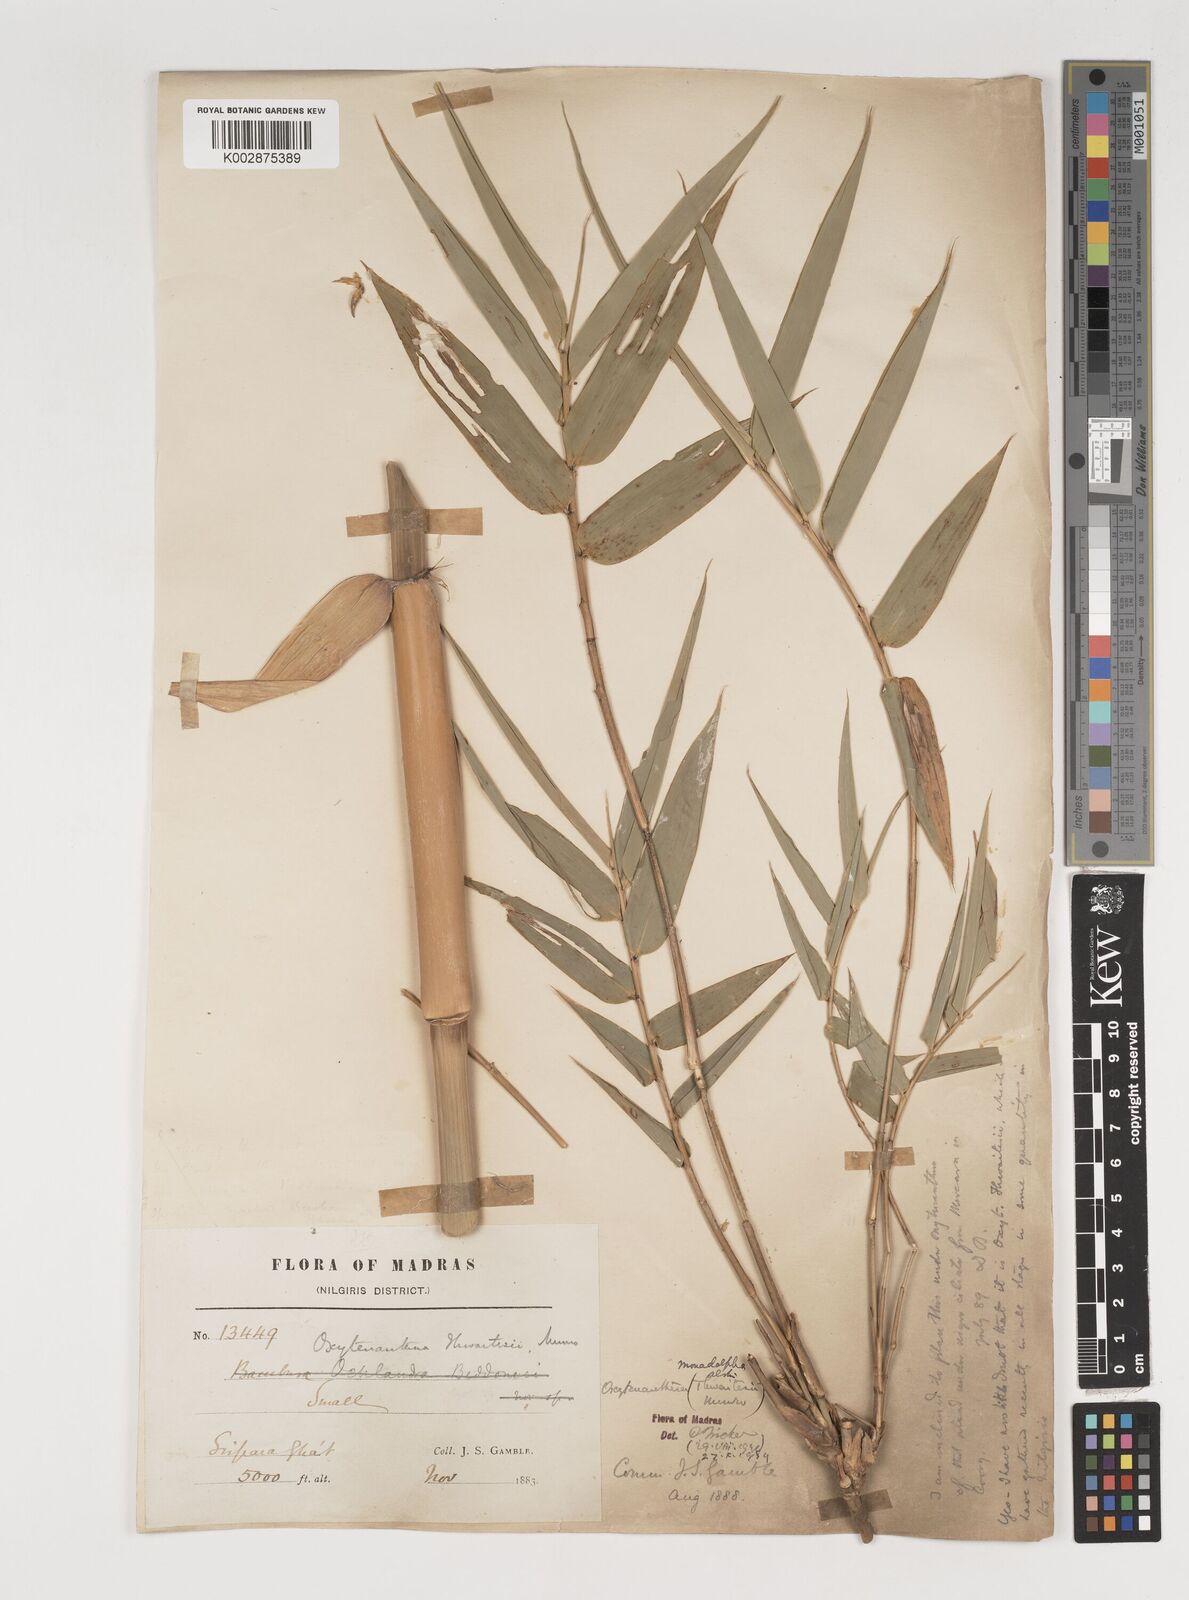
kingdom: Plantae
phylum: Tracheophyta
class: Liliopsida
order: Poales
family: Poaceae
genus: Pseudoxytenanthera
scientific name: Pseudoxytenanthera monadelpha
